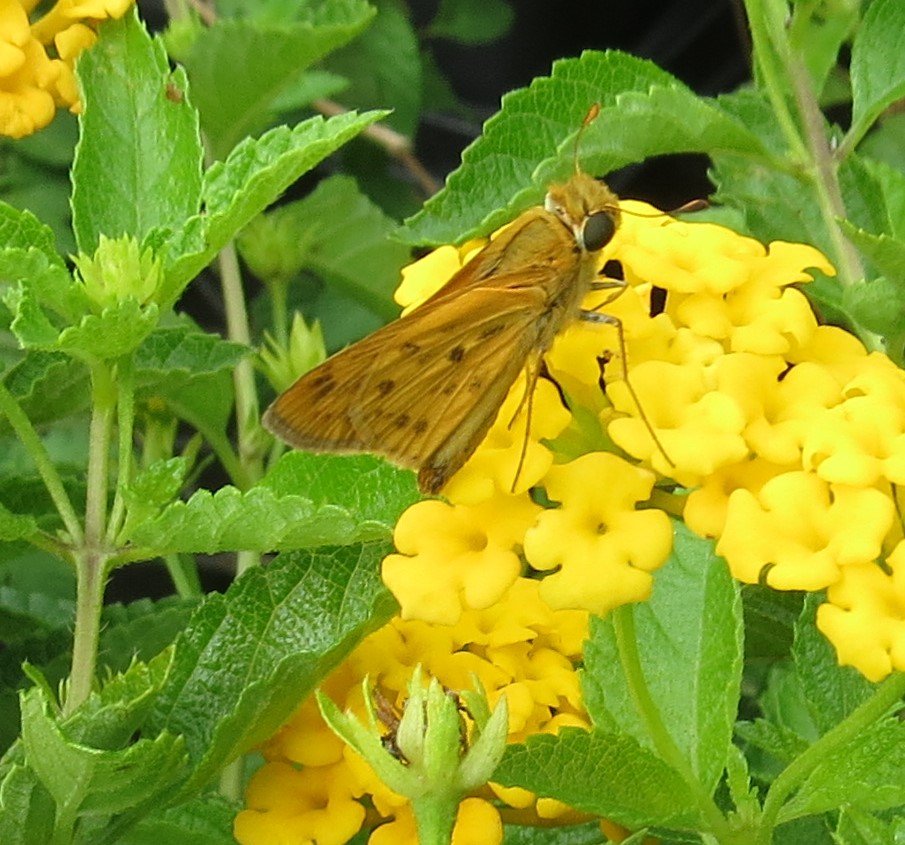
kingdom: Animalia
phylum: Arthropoda
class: Insecta
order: Lepidoptera
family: Hesperiidae
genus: Hylephila
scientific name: Hylephila phyleus
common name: Fiery Skipper
